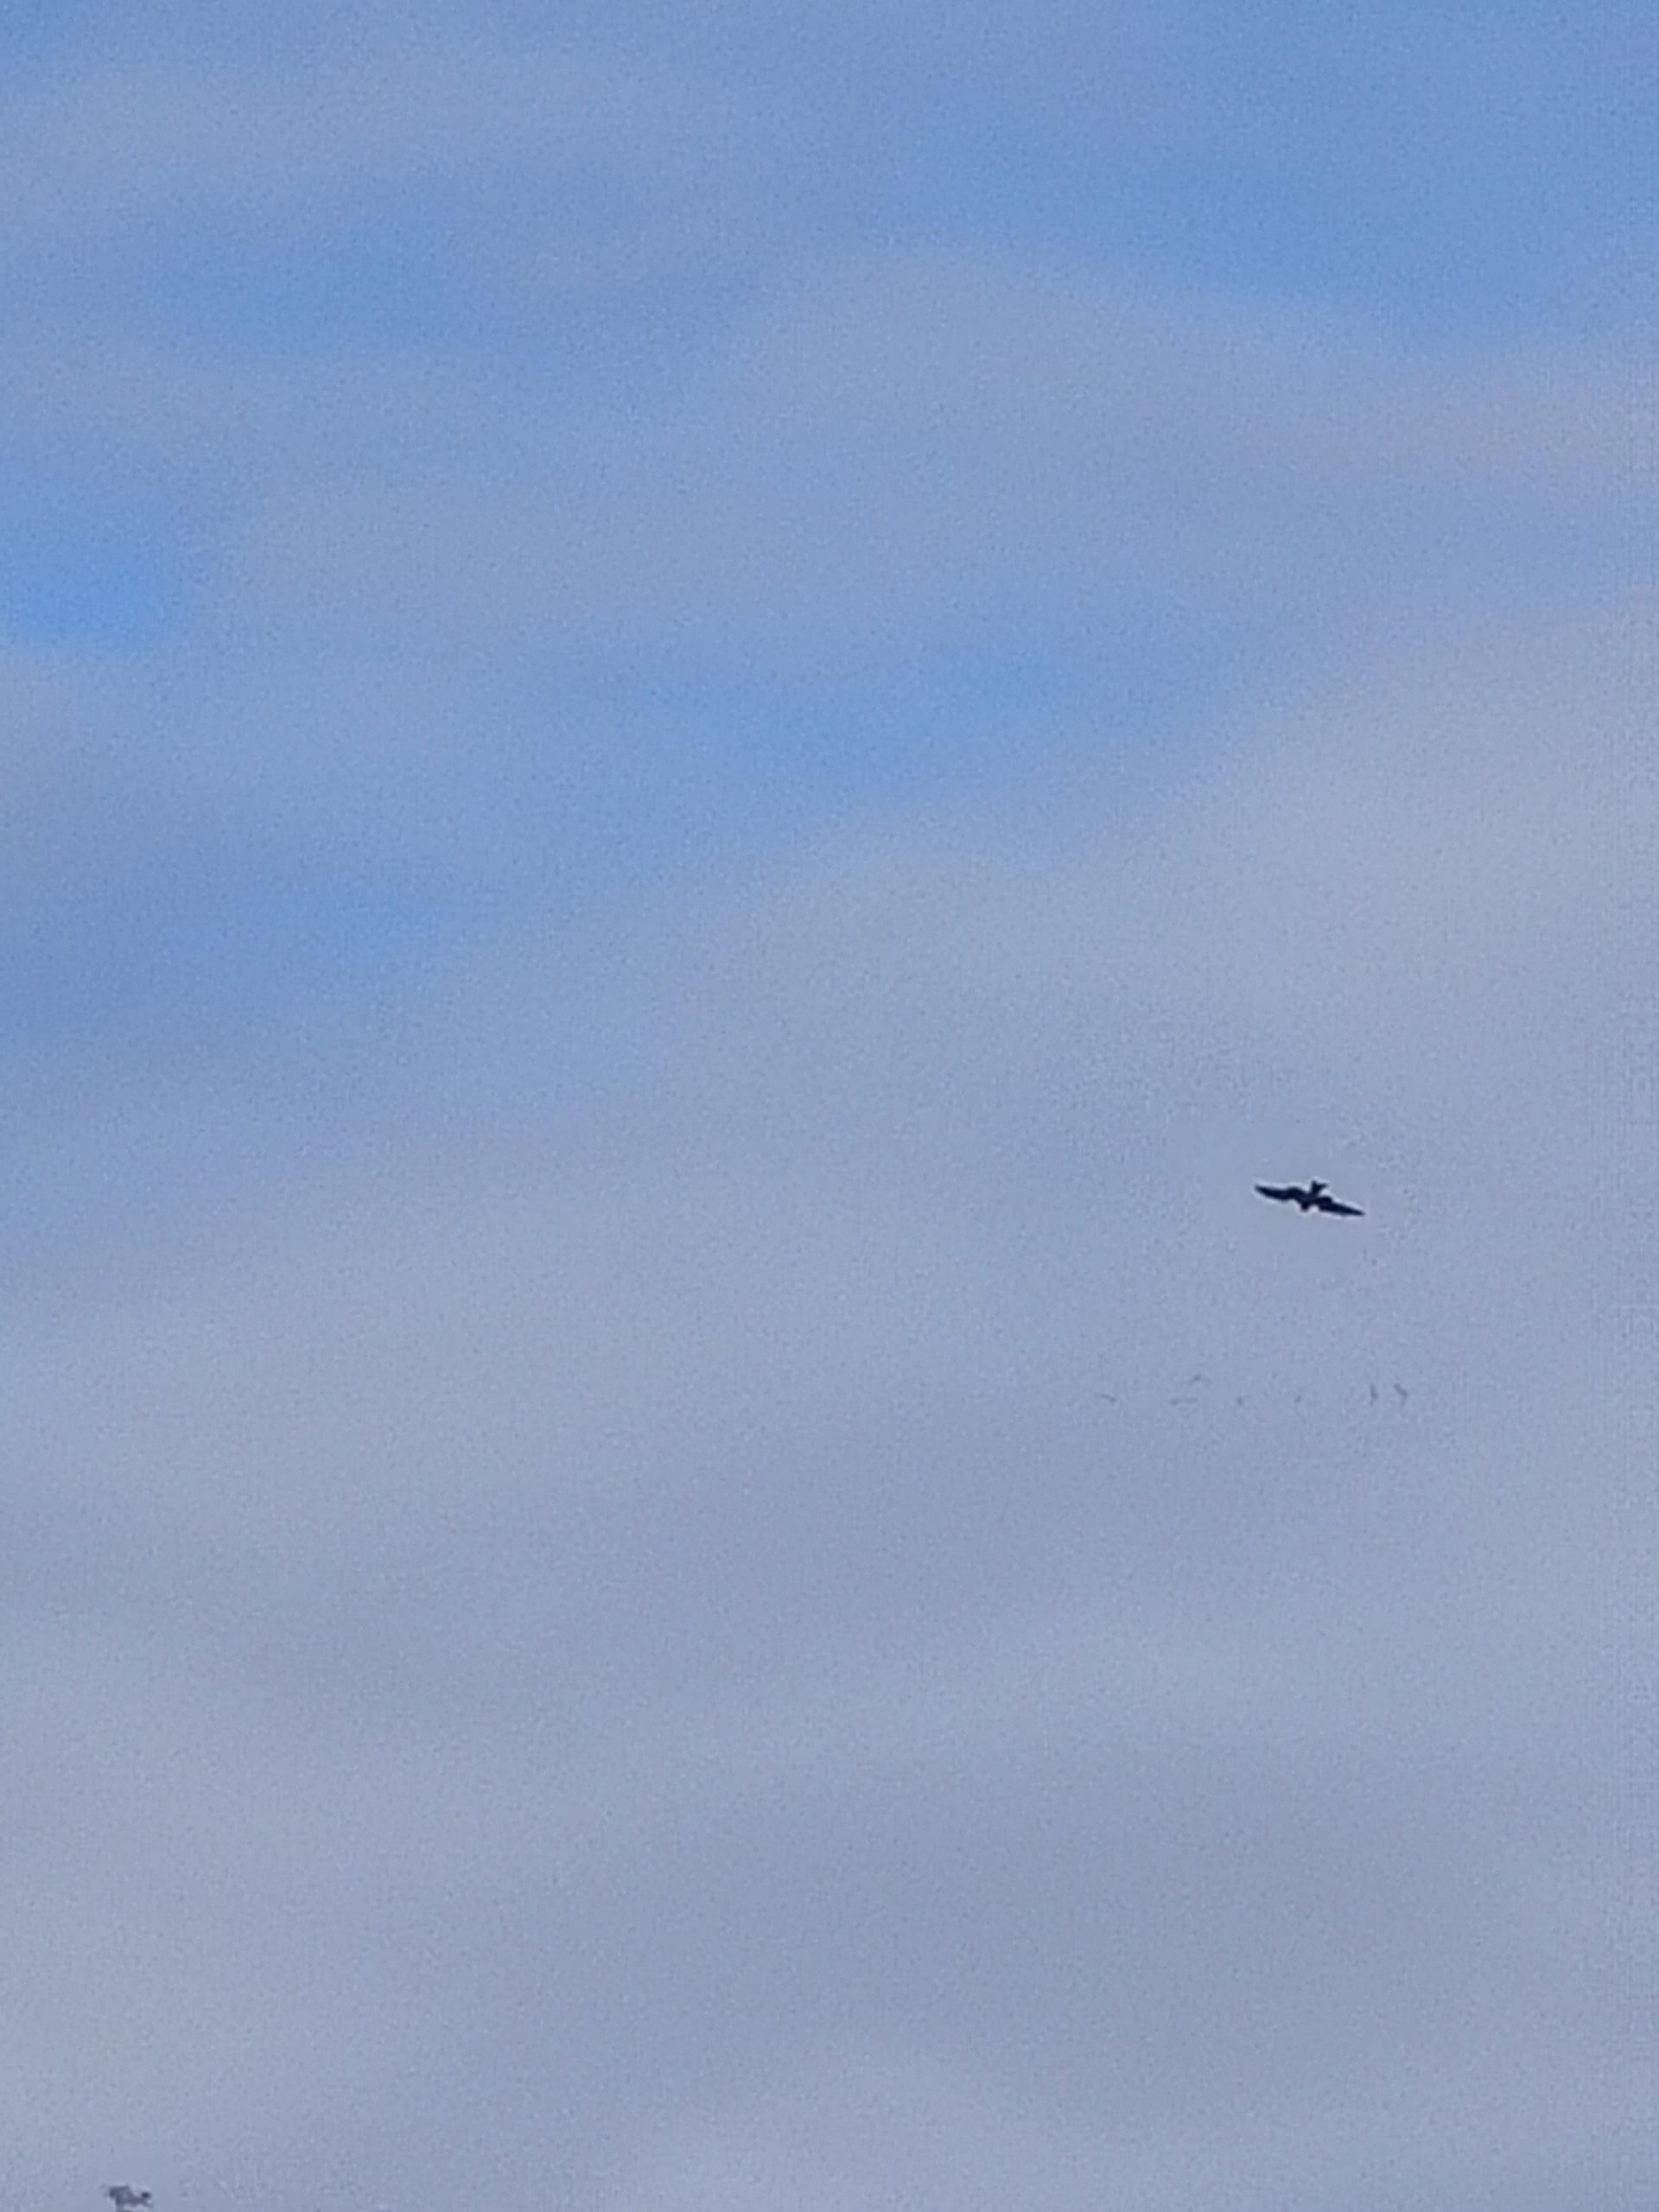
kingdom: Animalia
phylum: Chordata
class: Aves
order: Accipitriformes
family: Accipitridae
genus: Milvus
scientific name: Milvus milvus
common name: Rød glente
